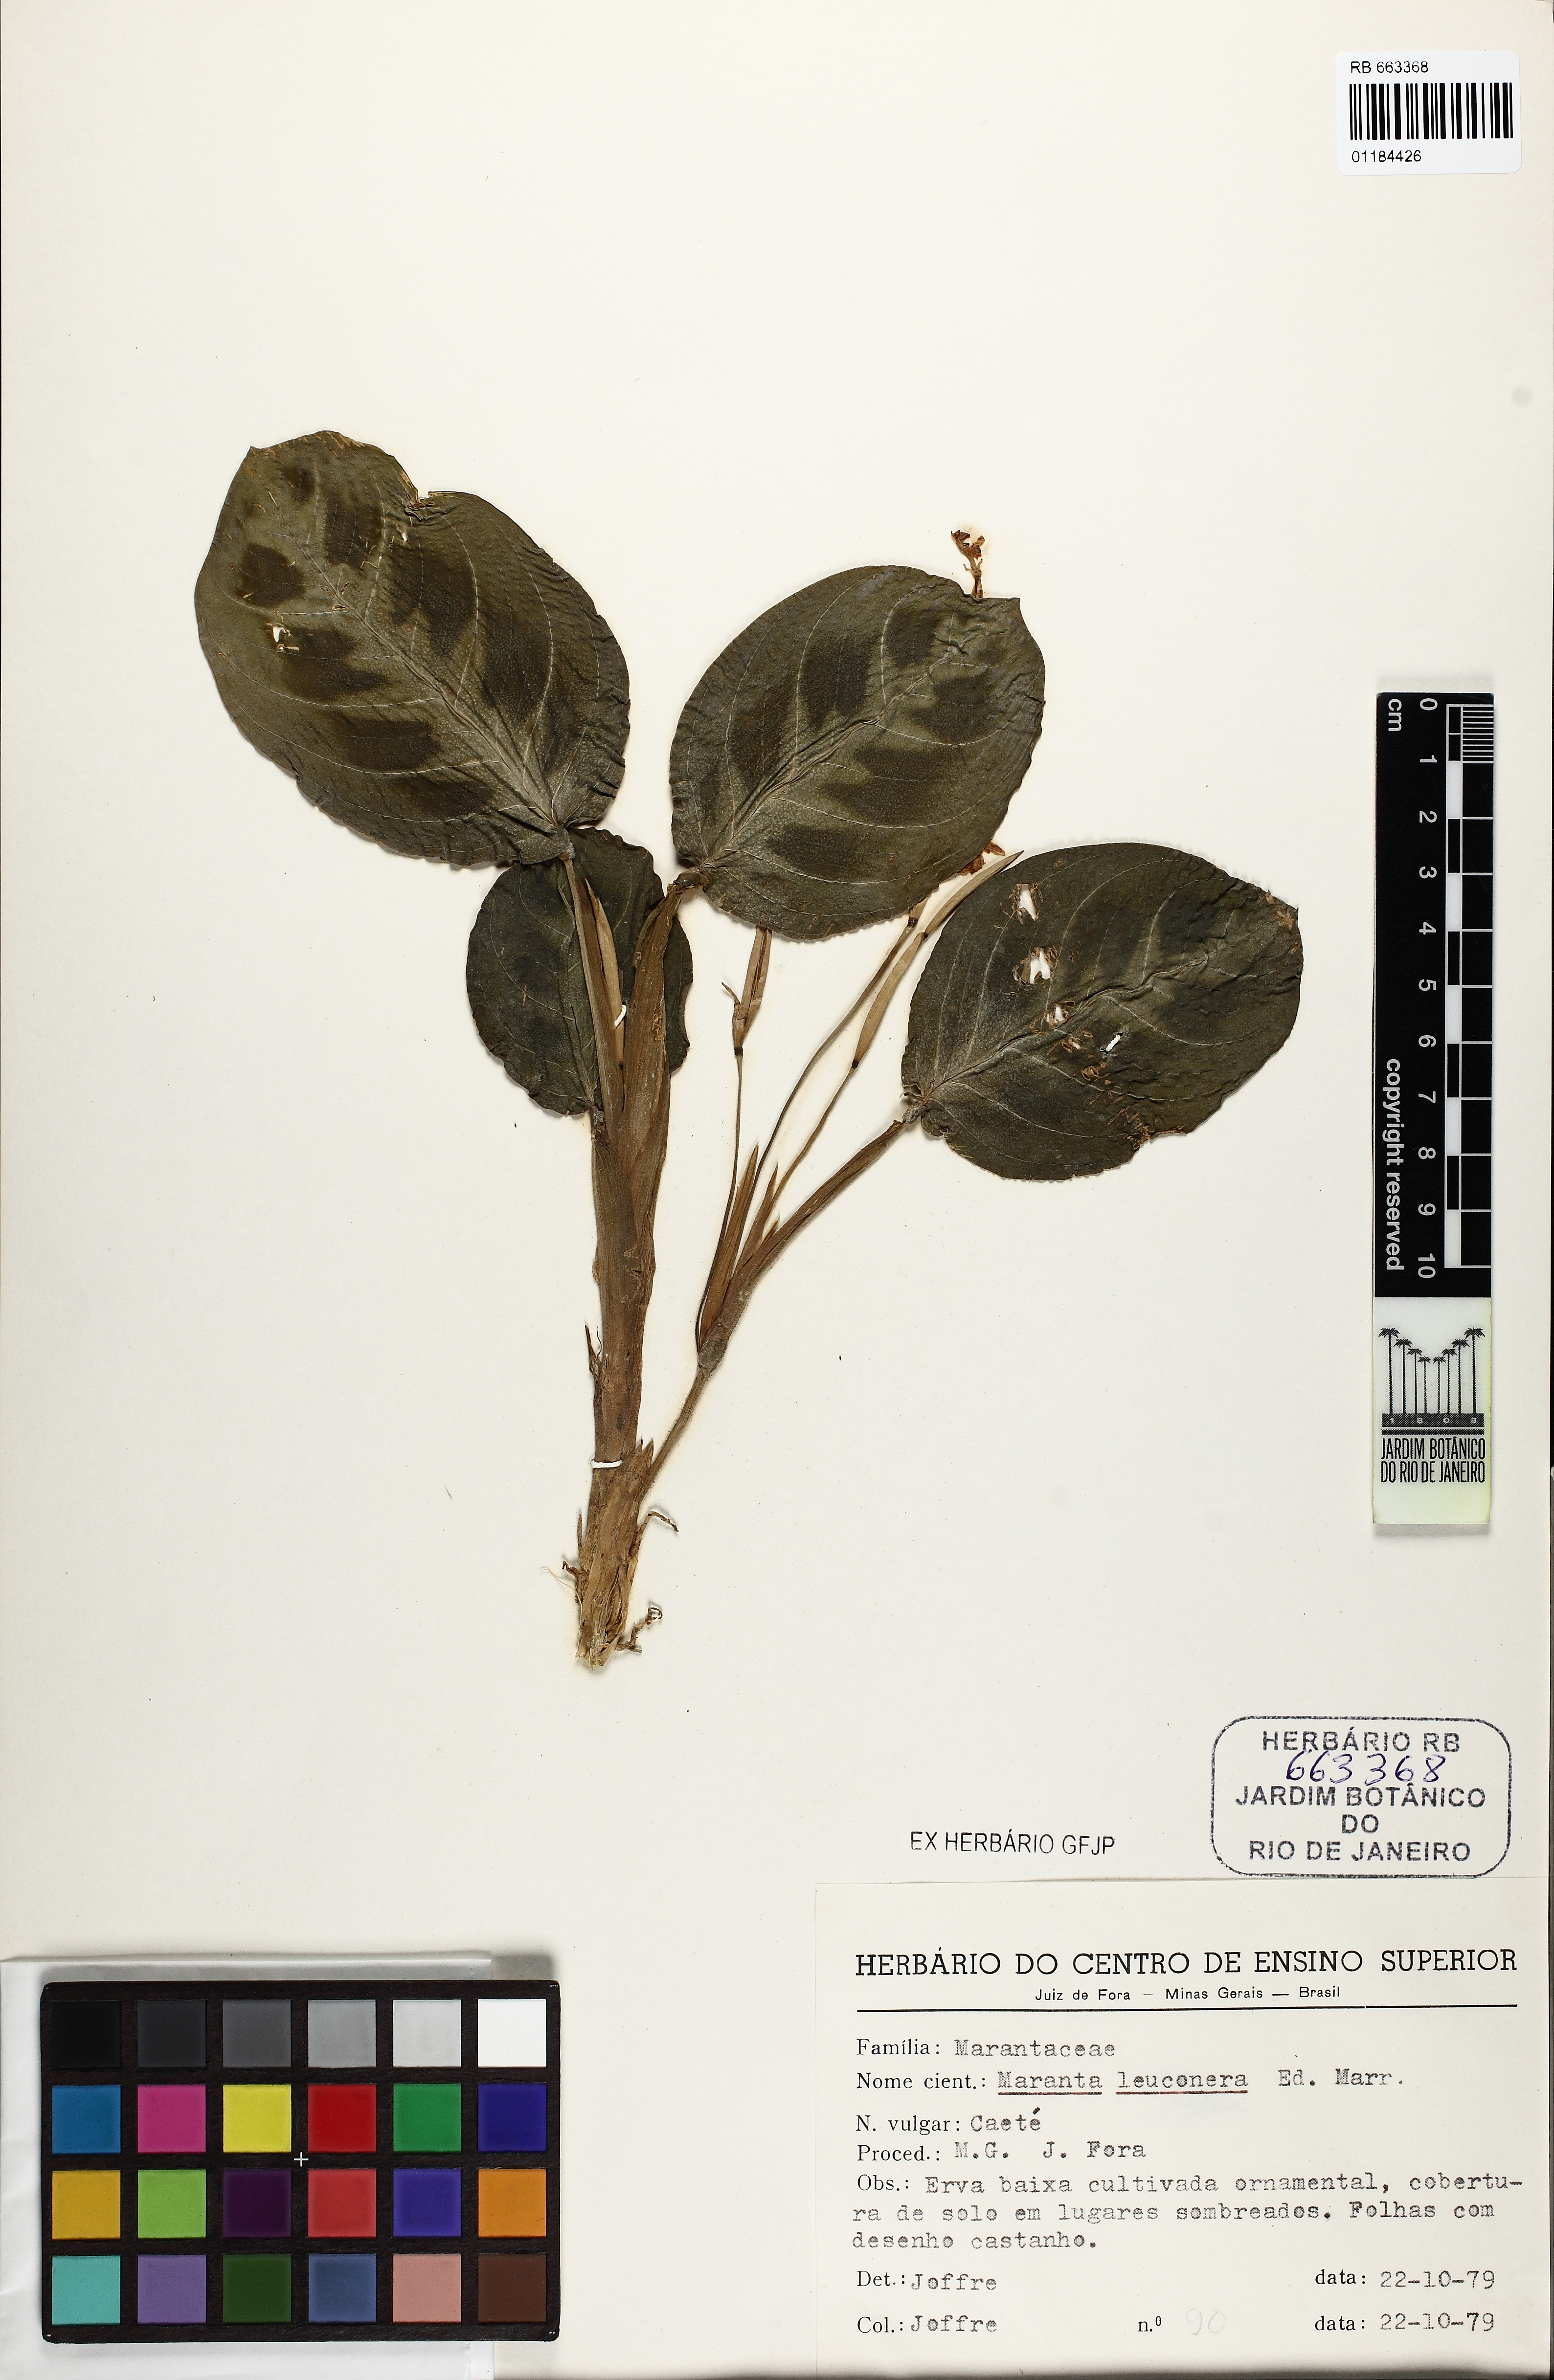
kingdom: Plantae
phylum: Tracheophyta
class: Liliopsida
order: Zingiberales
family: Marantaceae
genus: Maranta
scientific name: Maranta leuconeura
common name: Ten-commandments
